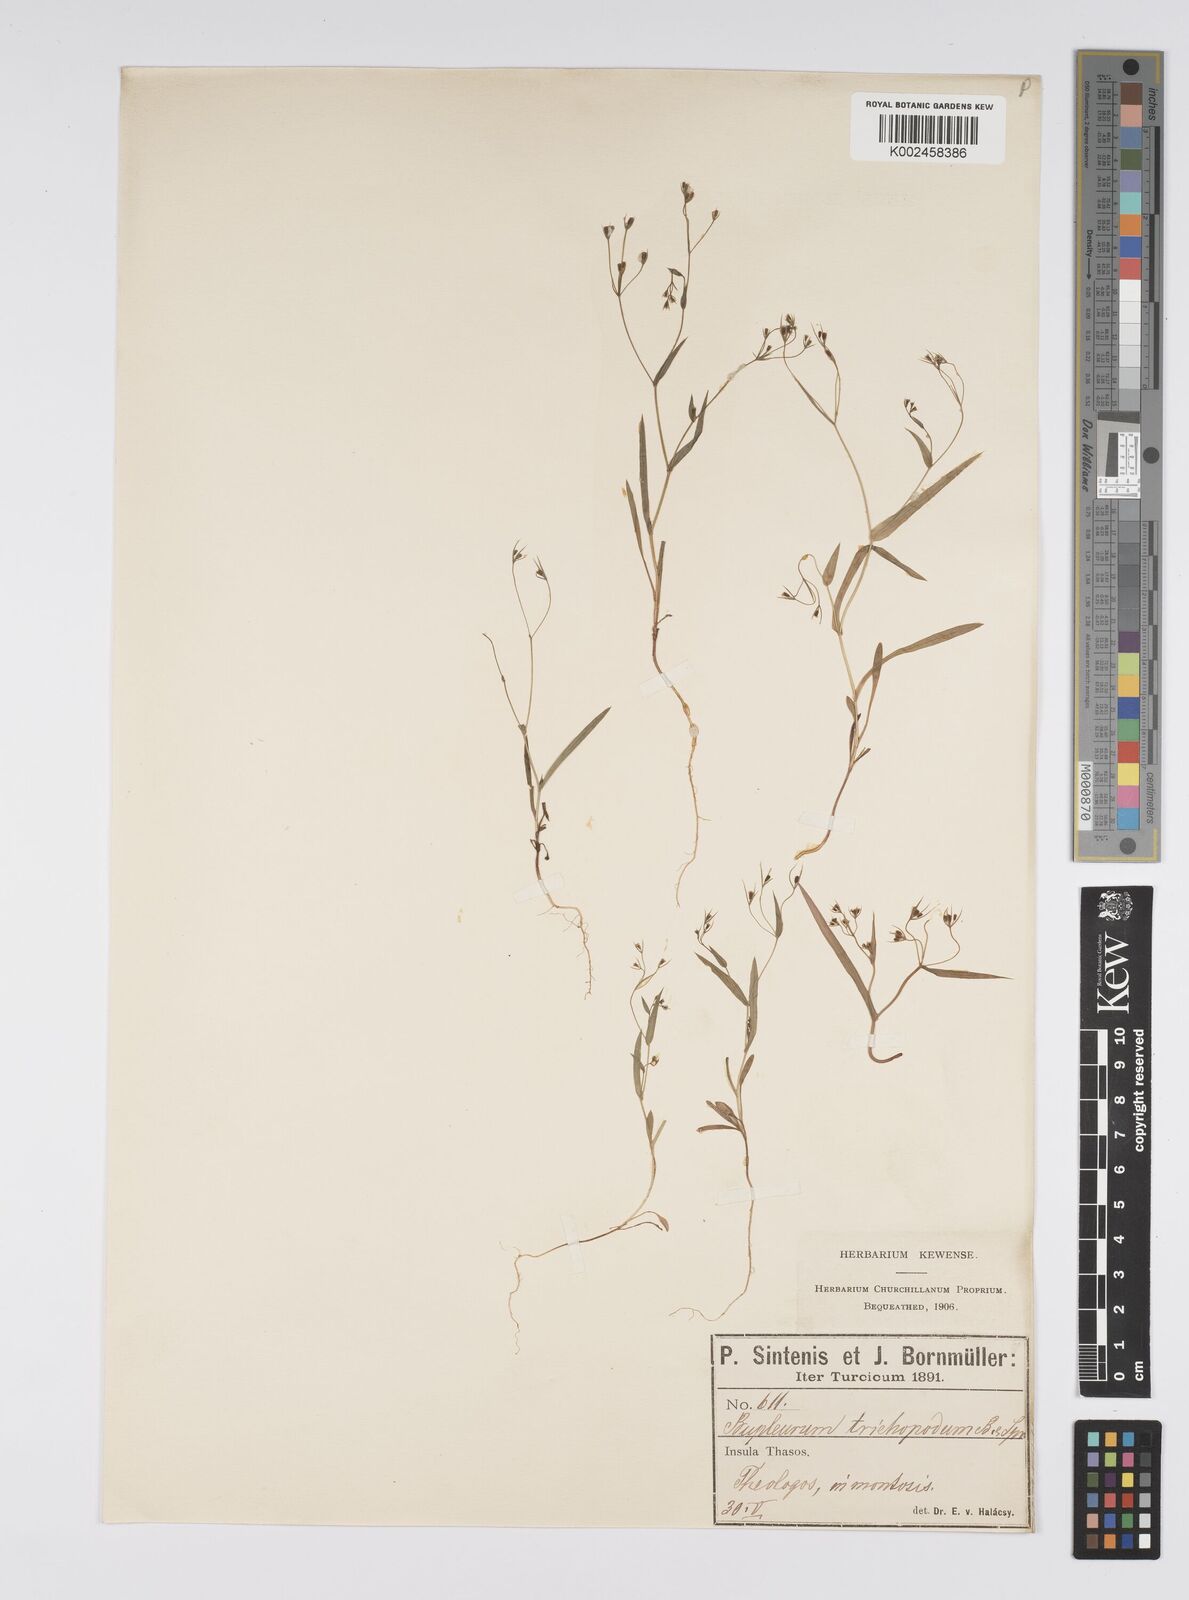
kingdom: Plantae
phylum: Tracheophyta
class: Magnoliopsida
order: Apiales
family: Apiaceae
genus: Bupleurum
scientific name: Bupleurum trichopodum
